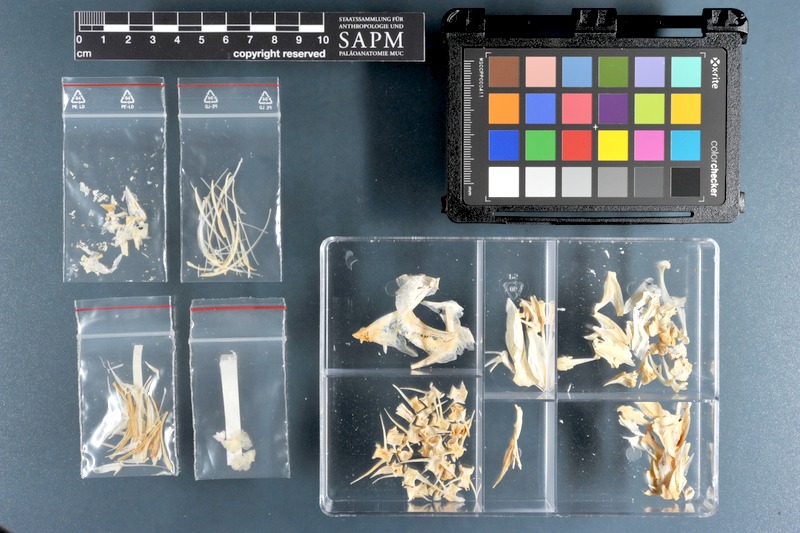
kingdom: Animalia
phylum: Chordata
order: Perciformes
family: Carangidae
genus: Caranx
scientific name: Caranx rhonchus
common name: False scad
